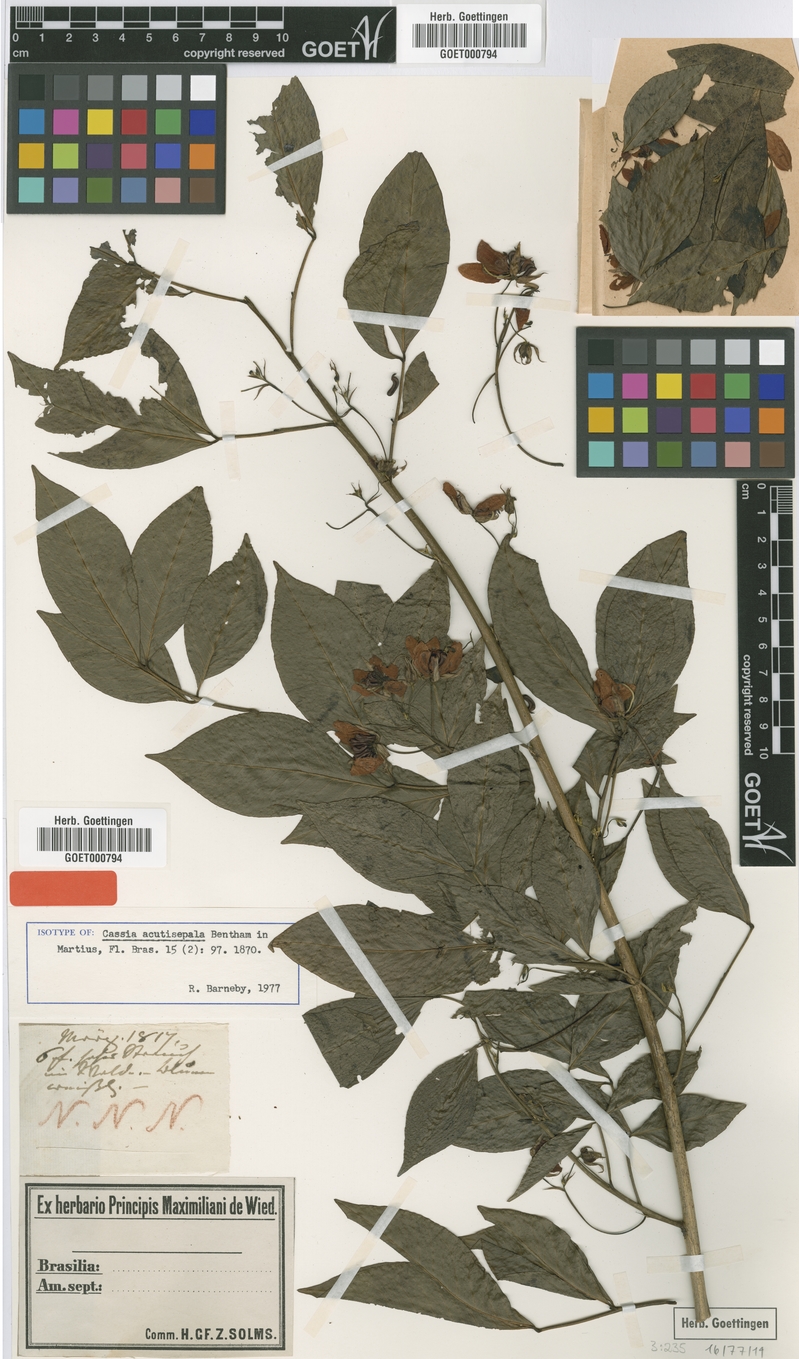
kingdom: Plantae
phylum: Tracheophyta
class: Magnoliopsida
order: Fabales
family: Fabaceae
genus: Senna
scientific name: Senna acutisepala
